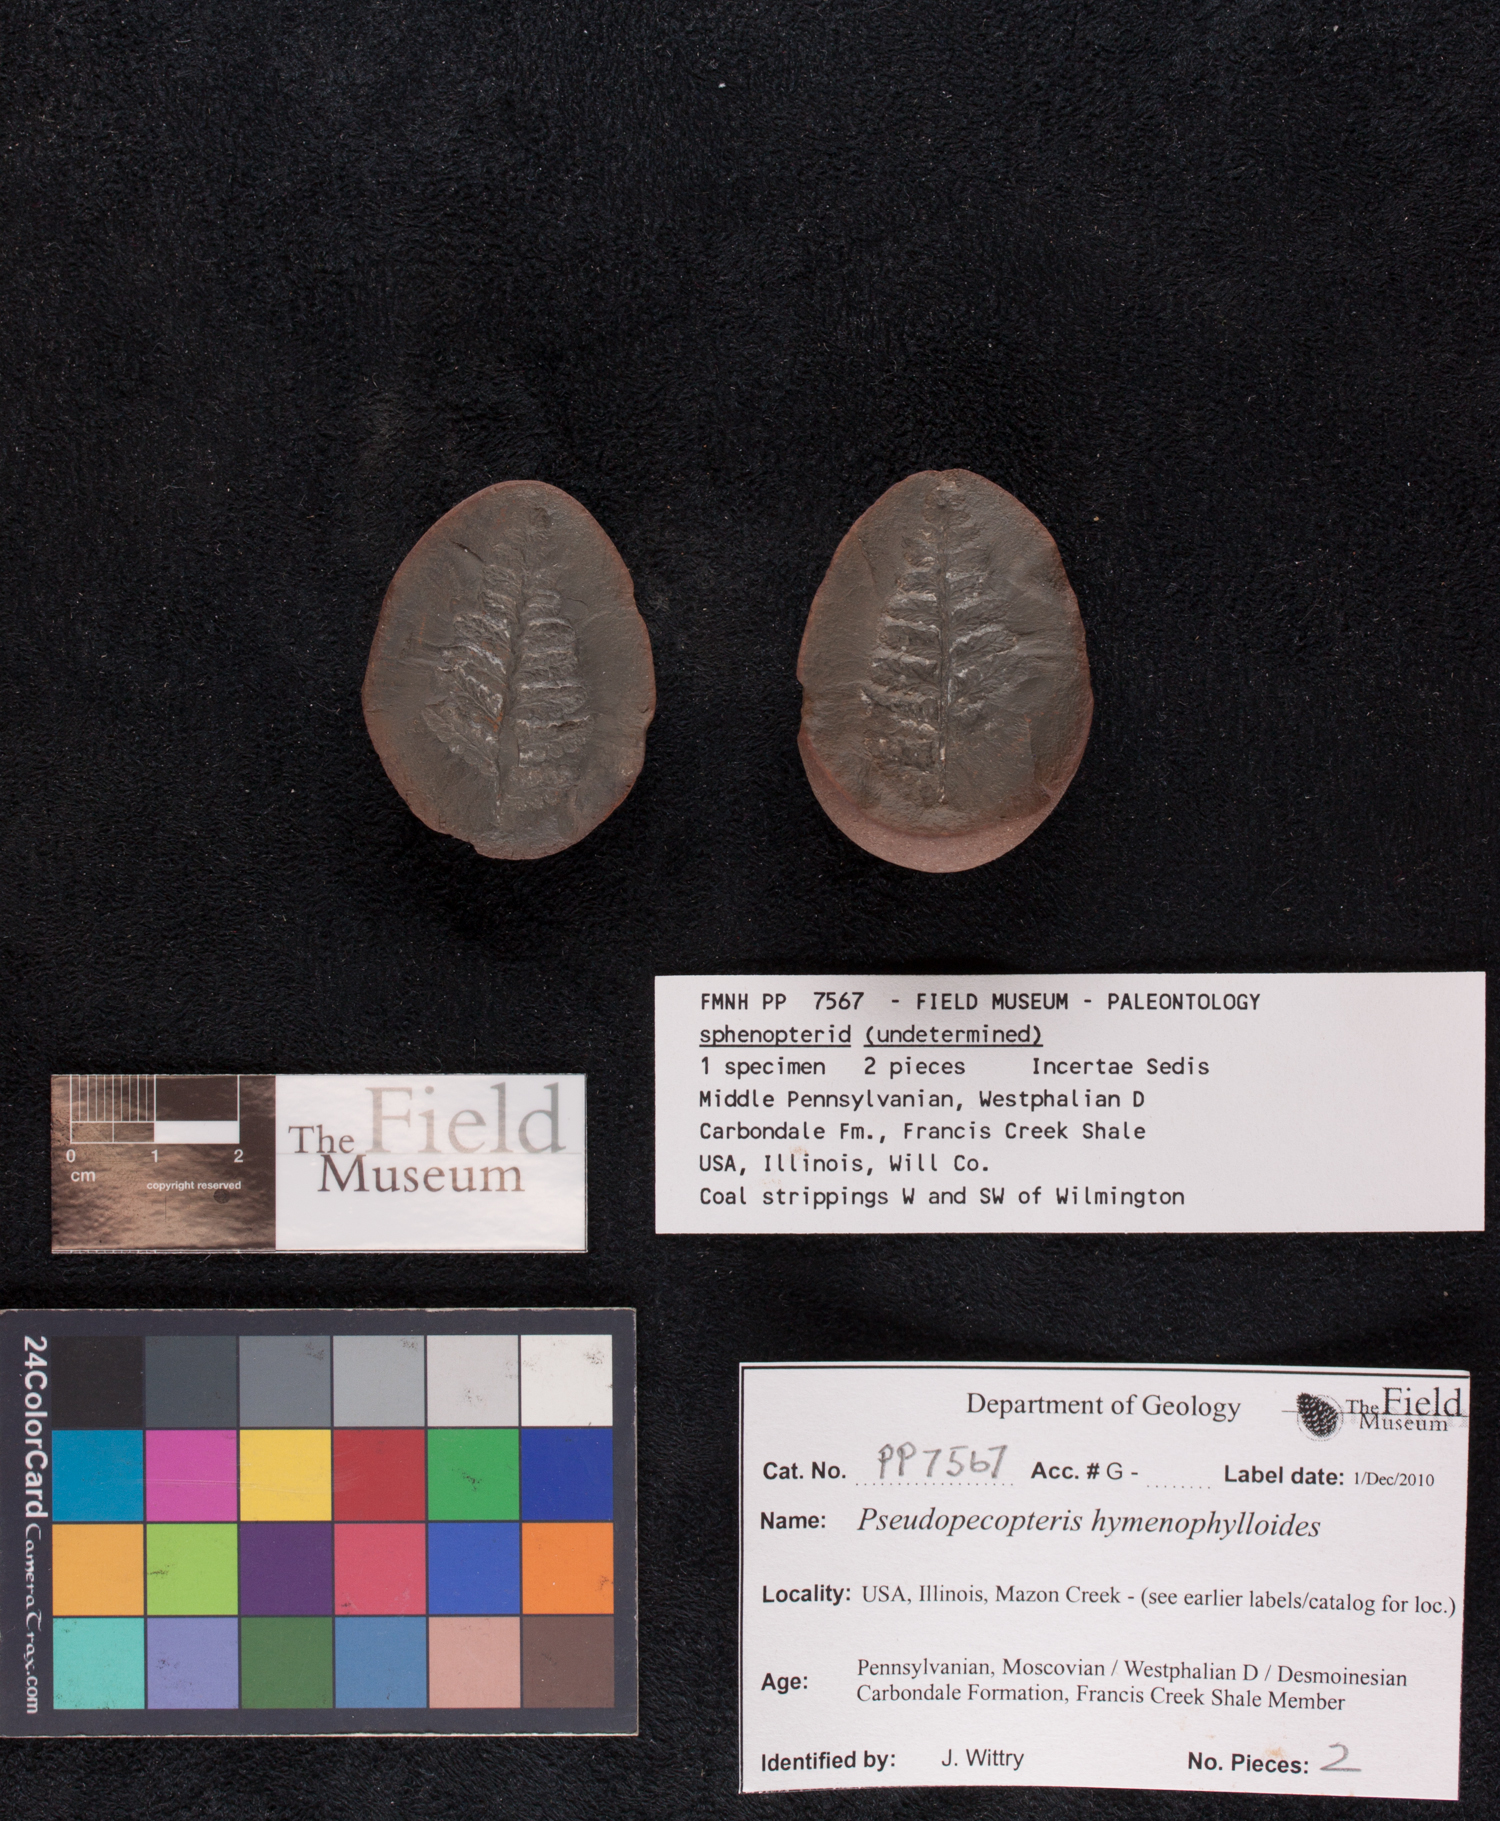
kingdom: Plantae
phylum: Tracheophyta
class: Polypodiopsida
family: Stauropteridaceae
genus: Crossotheca
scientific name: Crossotheca
